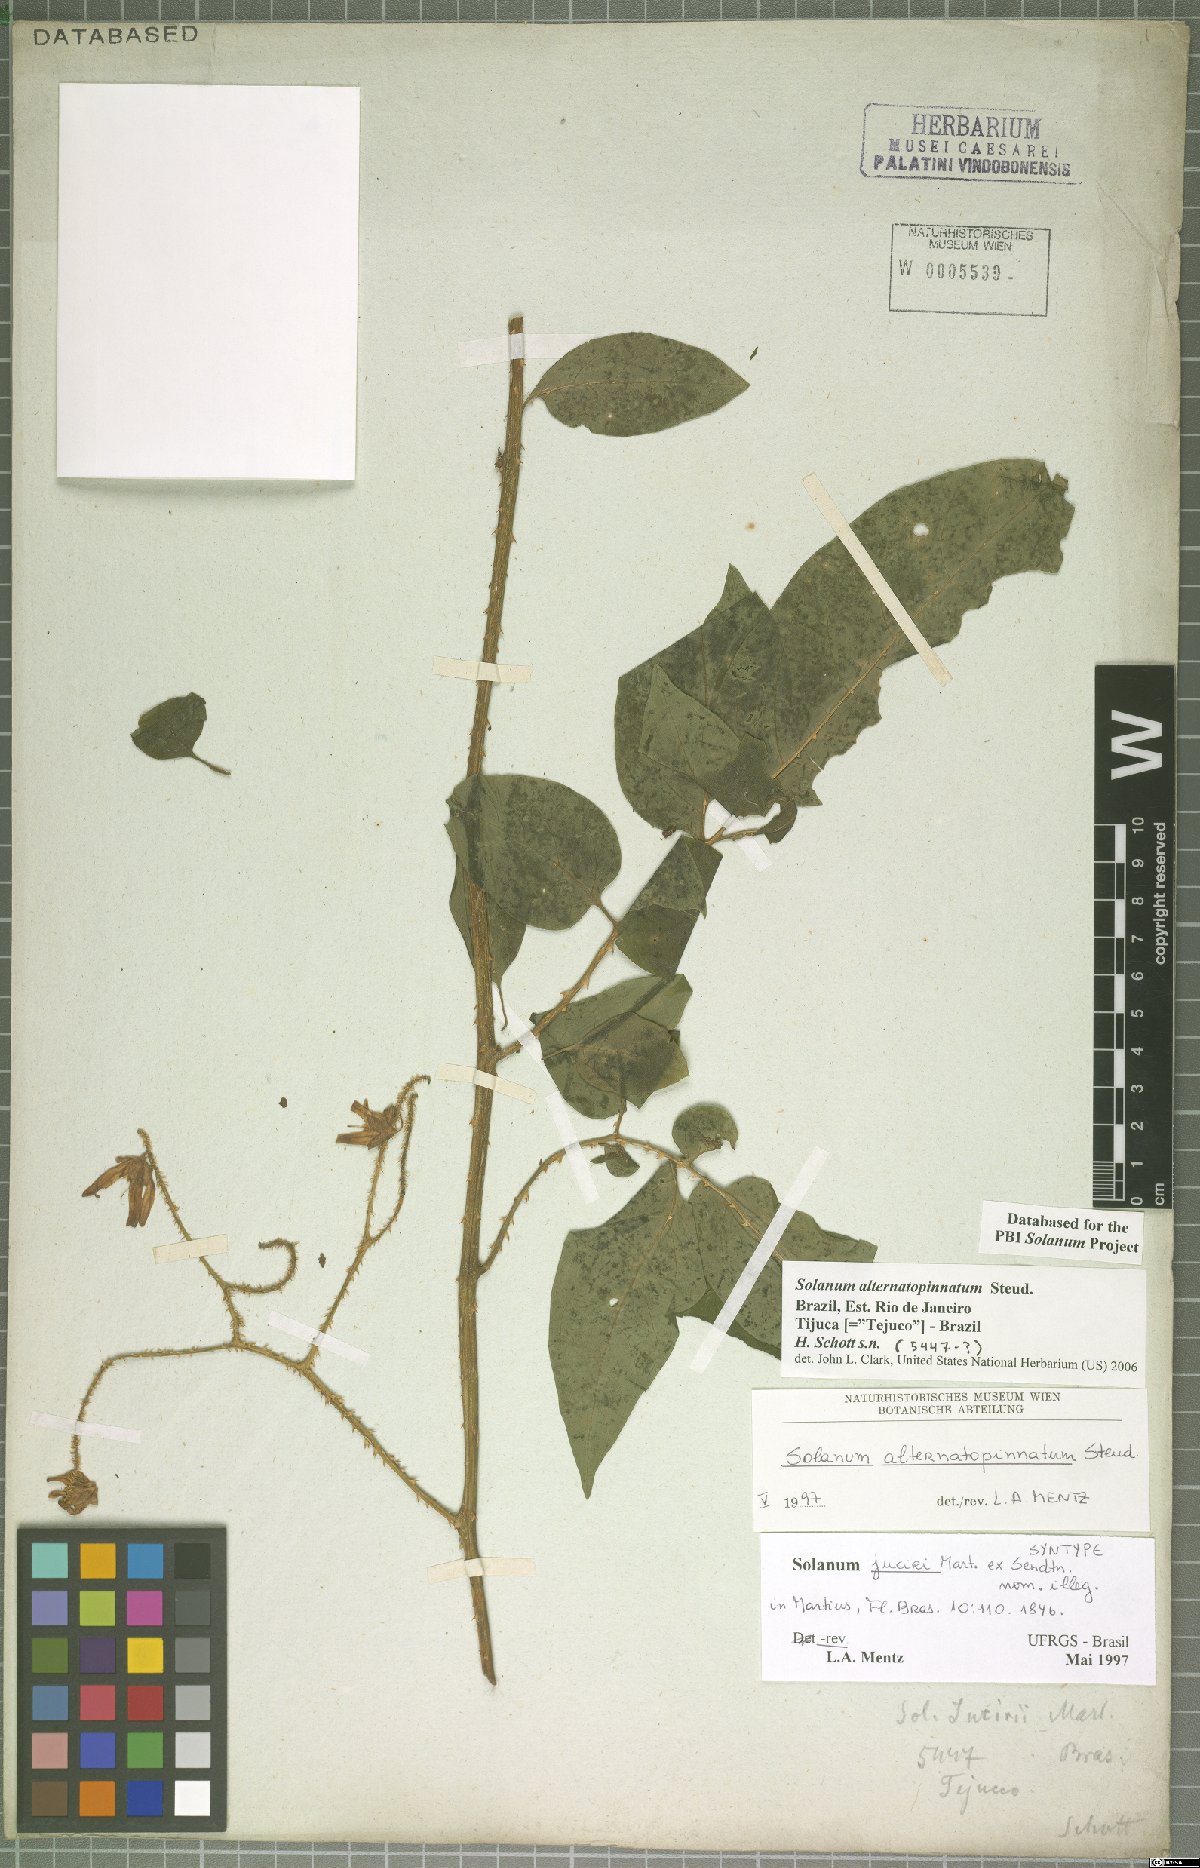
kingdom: Plantae
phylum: Tracheophyta
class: Magnoliopsida
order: Solanales
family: Solanaceae
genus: Solanum
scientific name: Solanum alternatopinnatum
